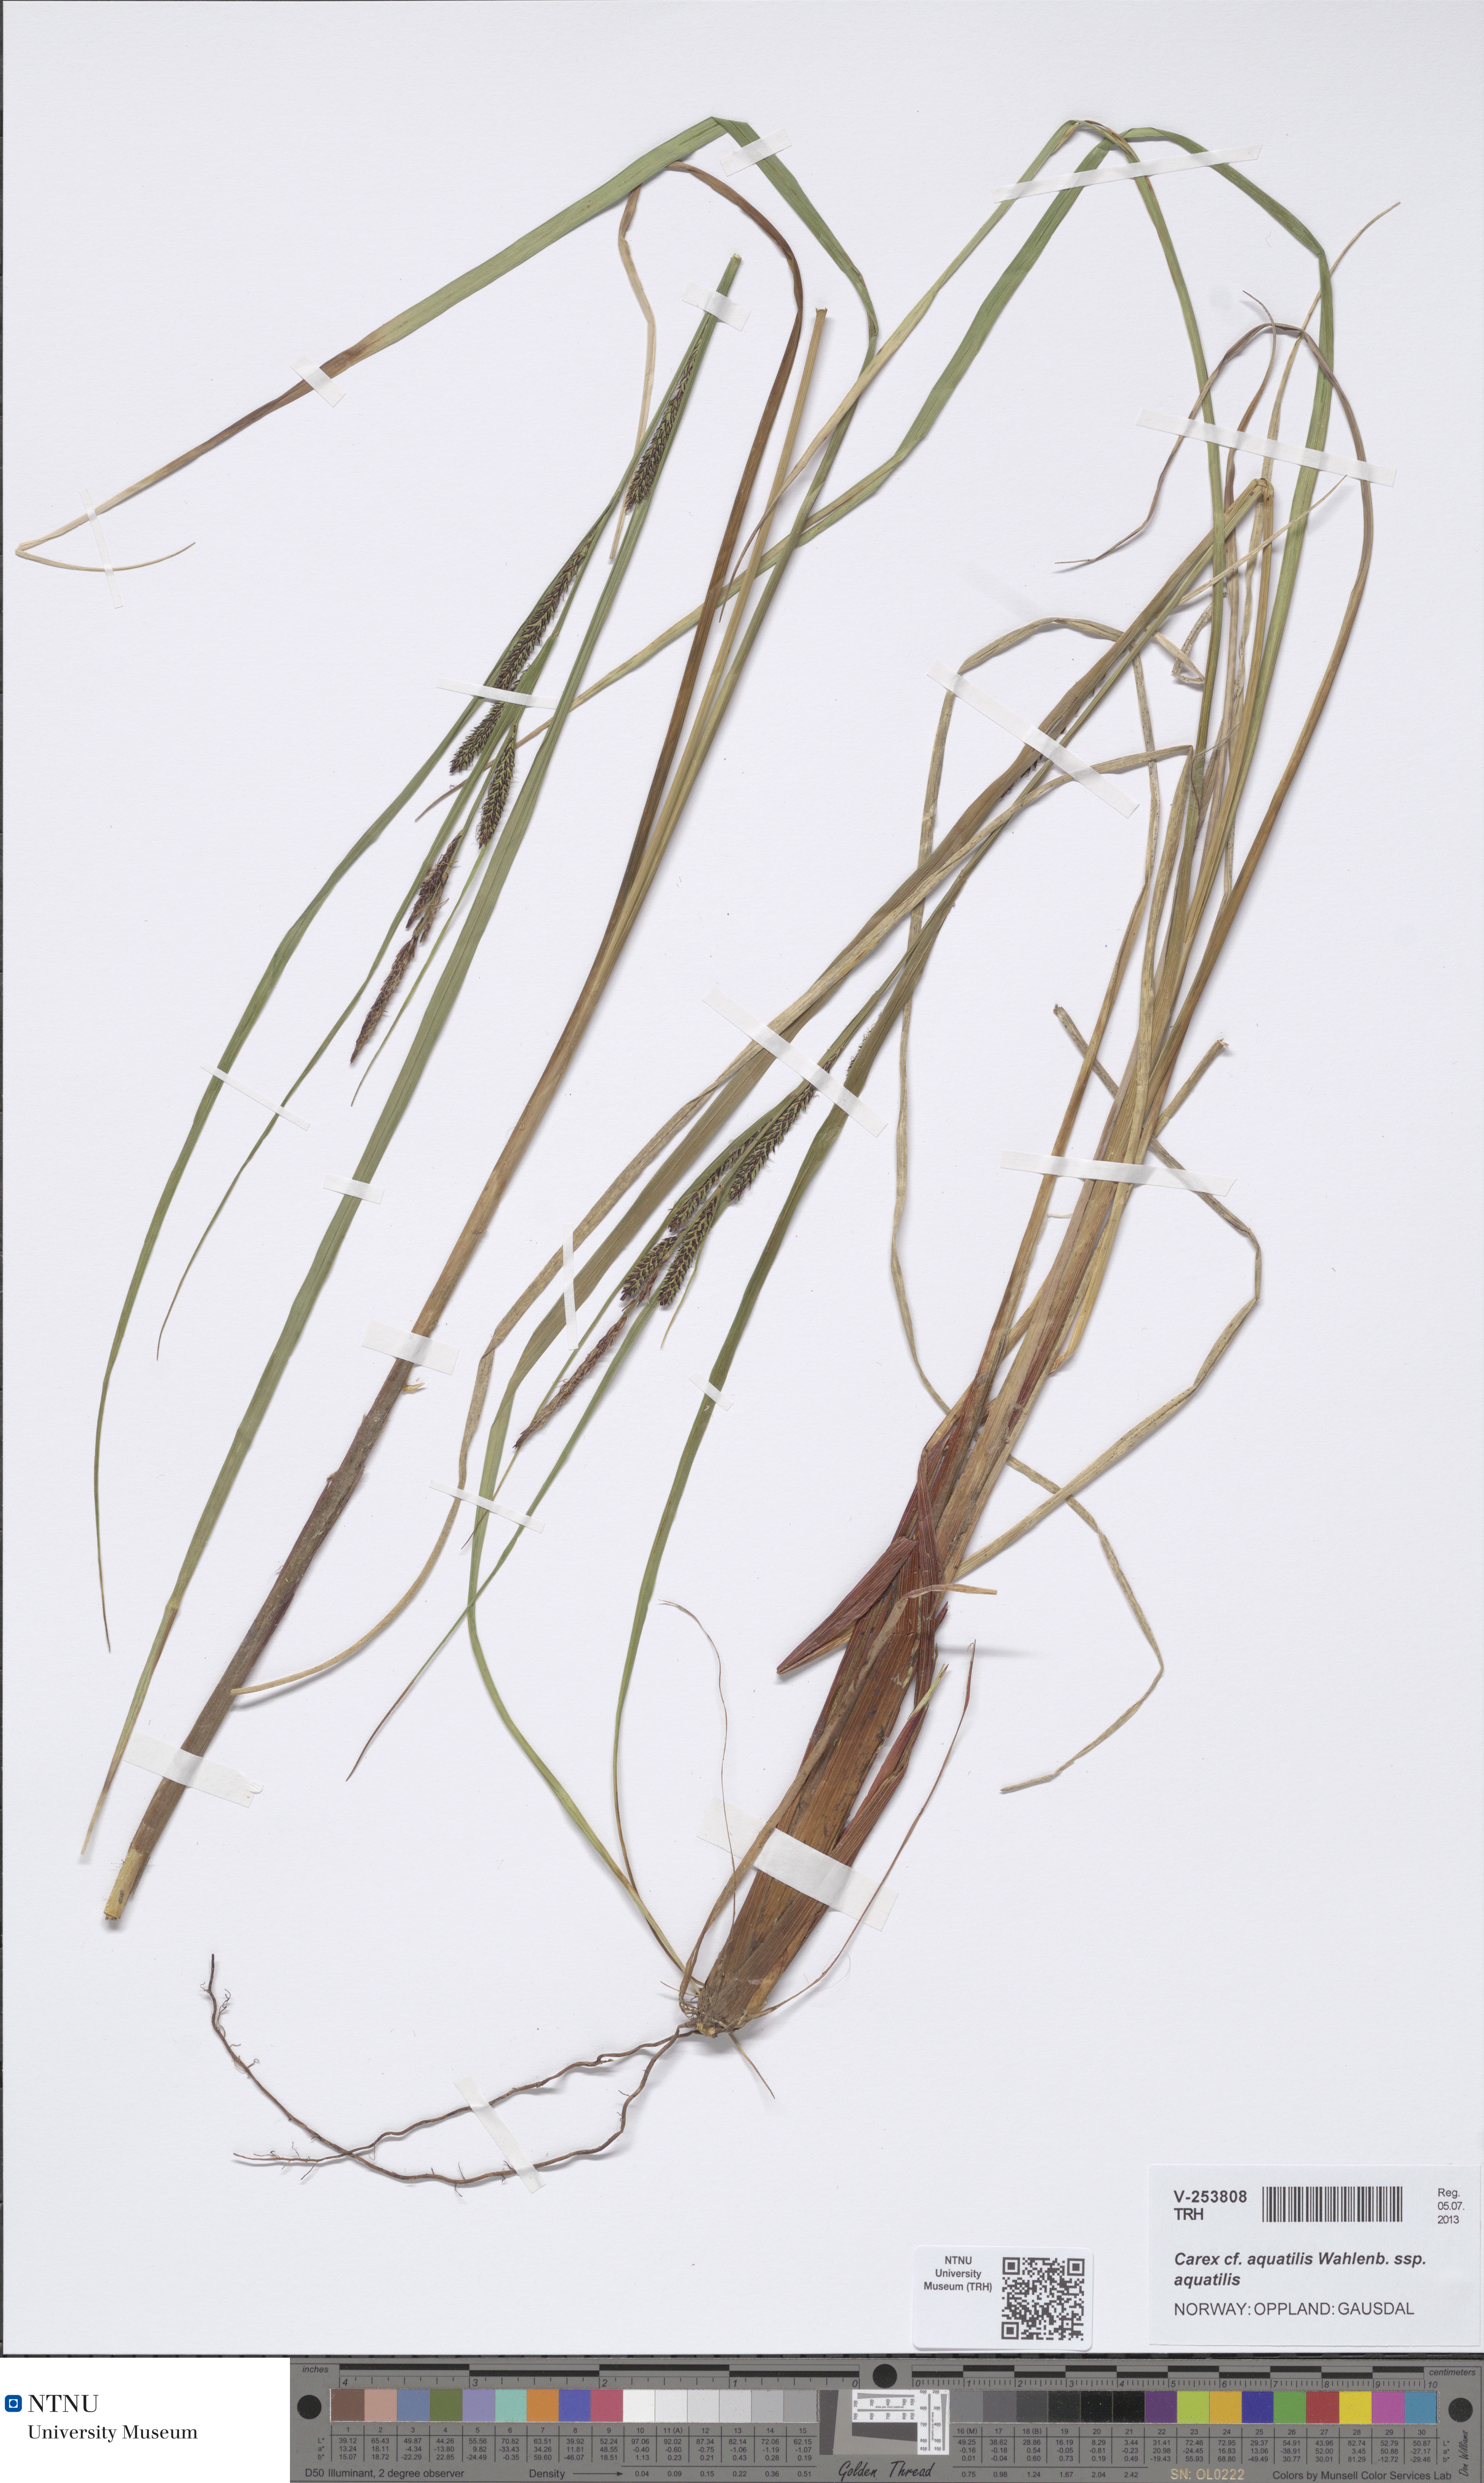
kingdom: Plantae
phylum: Tracheophyta
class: Liliopsida
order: Poales
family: Cyperaceae
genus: Carex
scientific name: Carex aquatilis
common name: Water sedge
